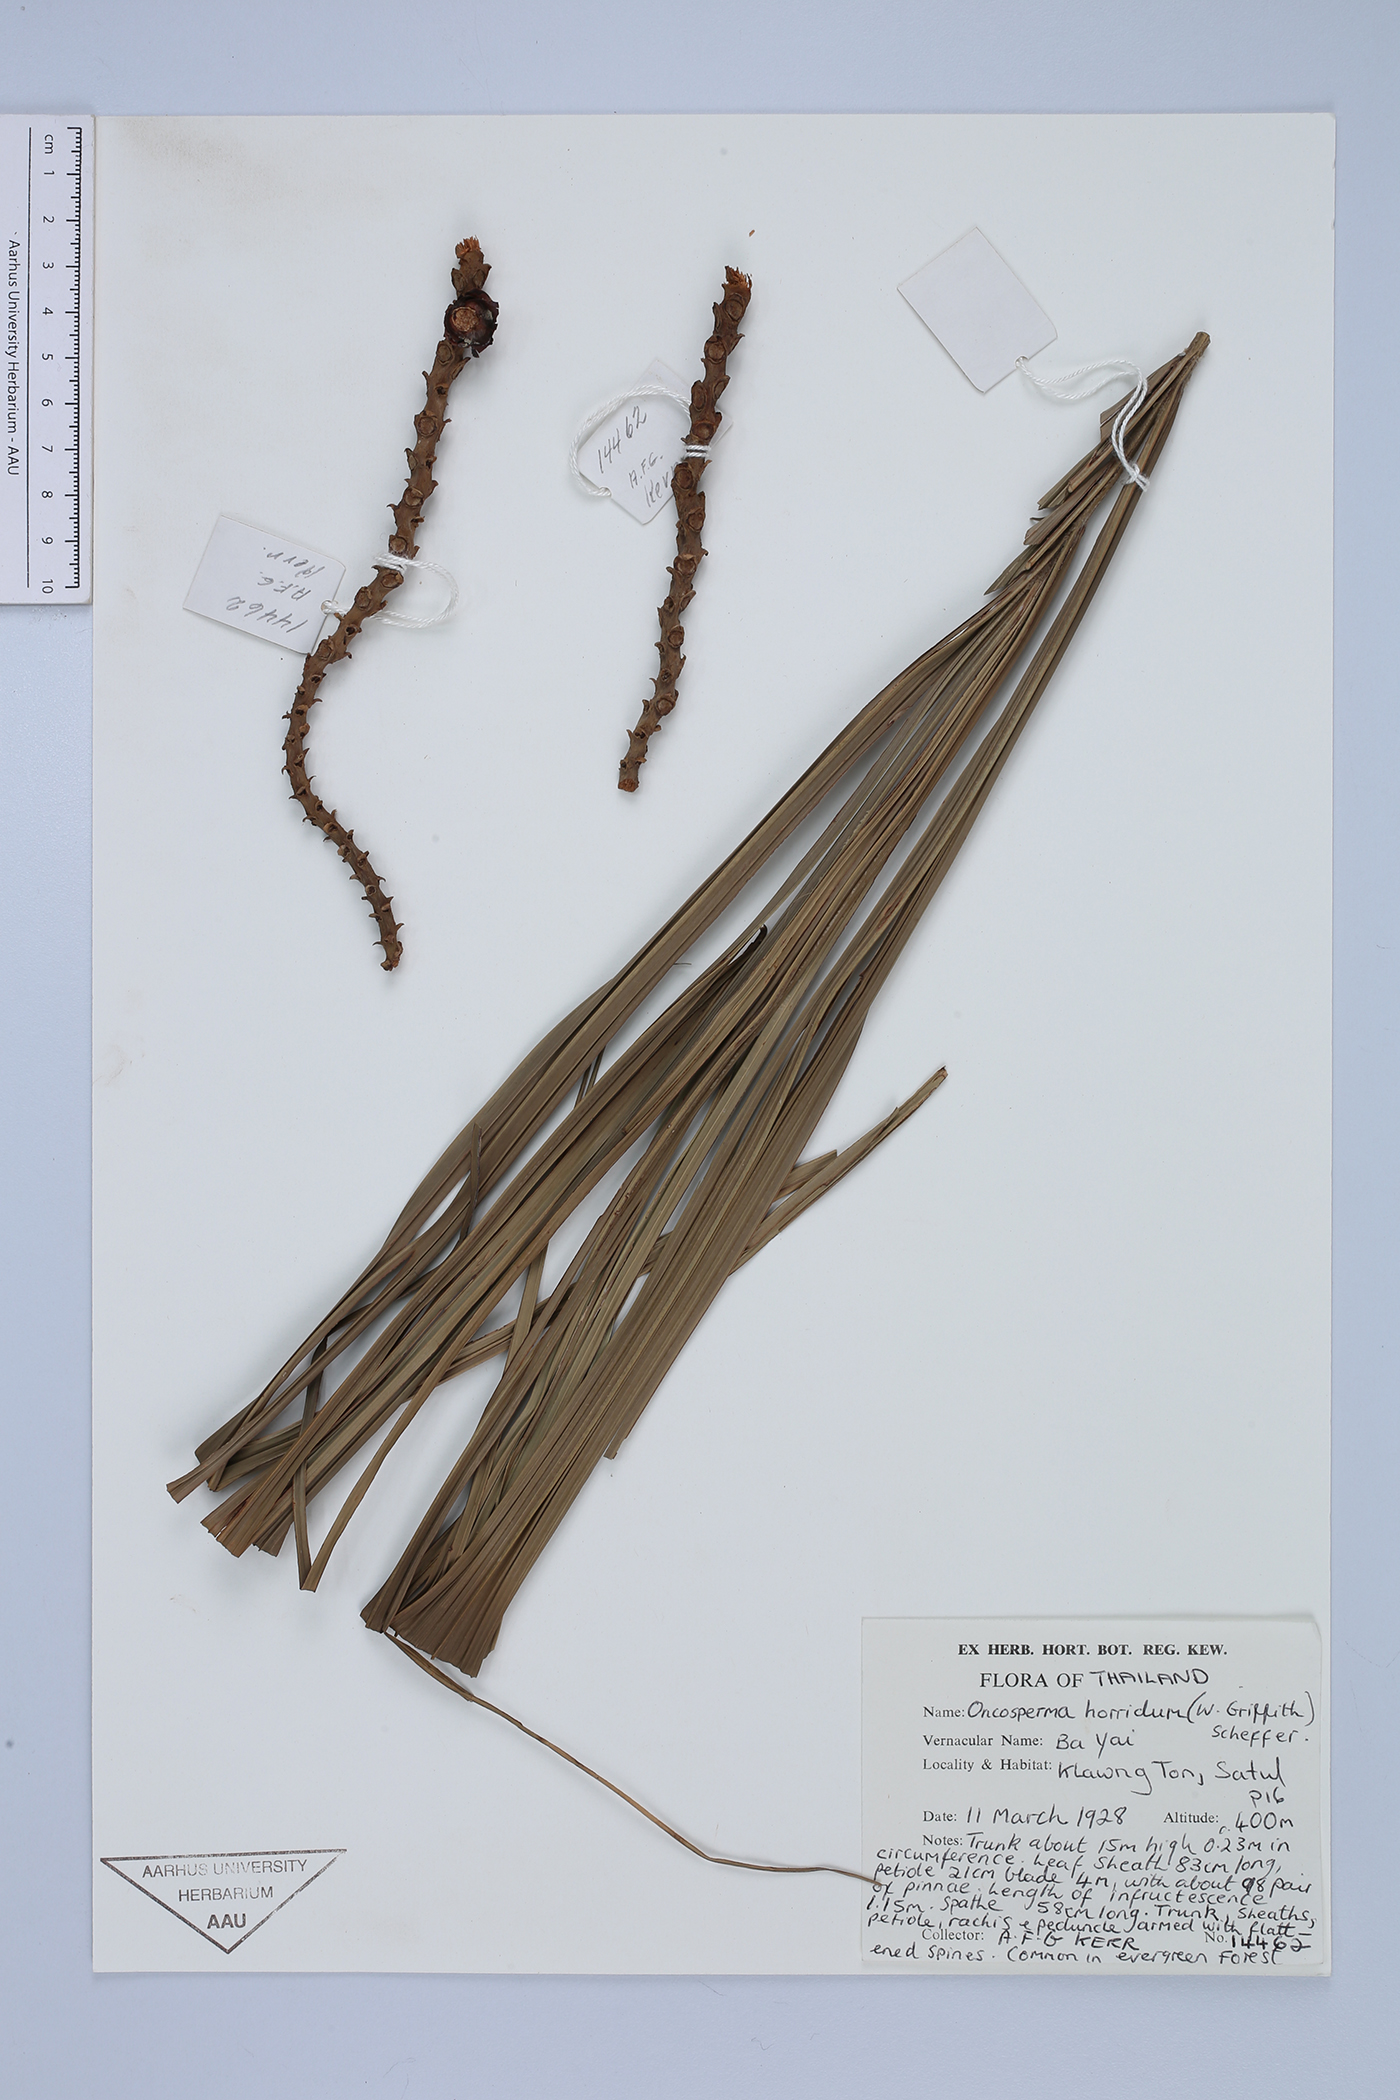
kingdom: Plantae
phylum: Tracheophyta
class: Liliopsida
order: Arecales
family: Arecaceae
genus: Oncosperma
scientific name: Oncosperma horridum
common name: Thorny palm
